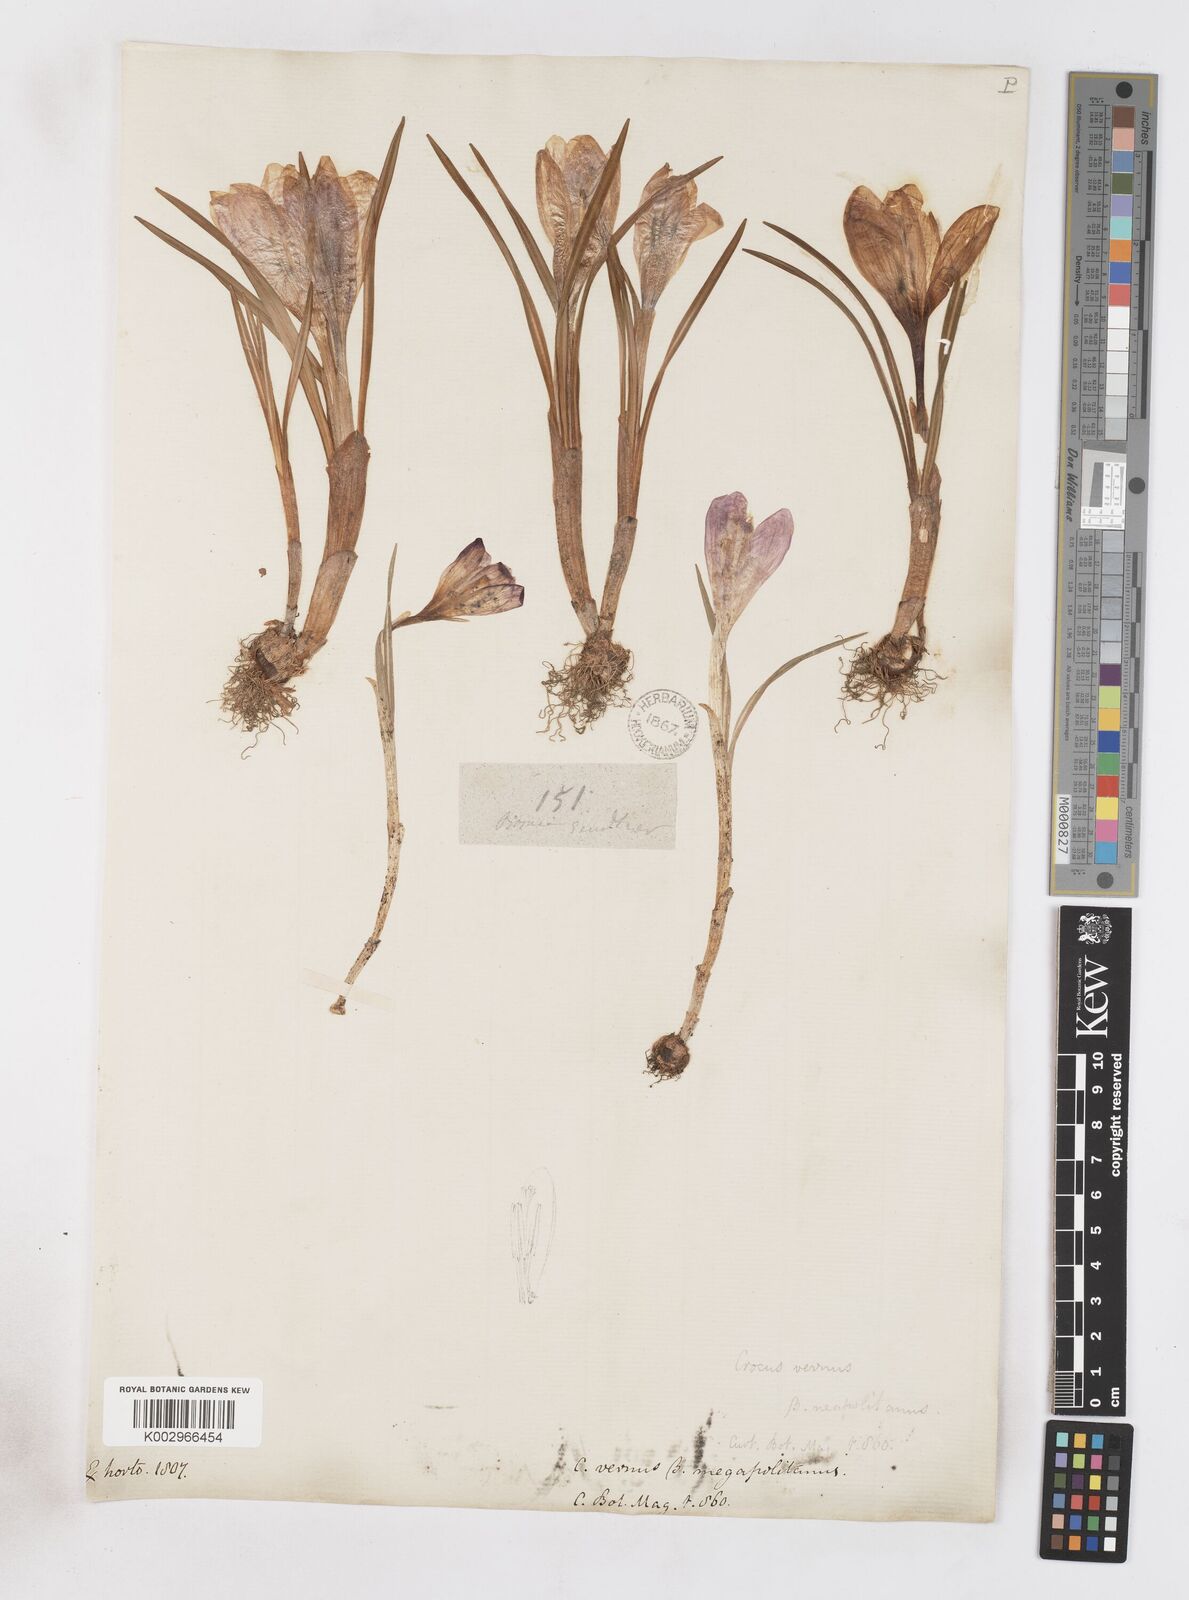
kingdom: Plantae
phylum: Tracheophyta
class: Liliopsida
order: Asparagales
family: Iridaceae
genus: Crocus
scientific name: Crocus vernus
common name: Spring crocus
